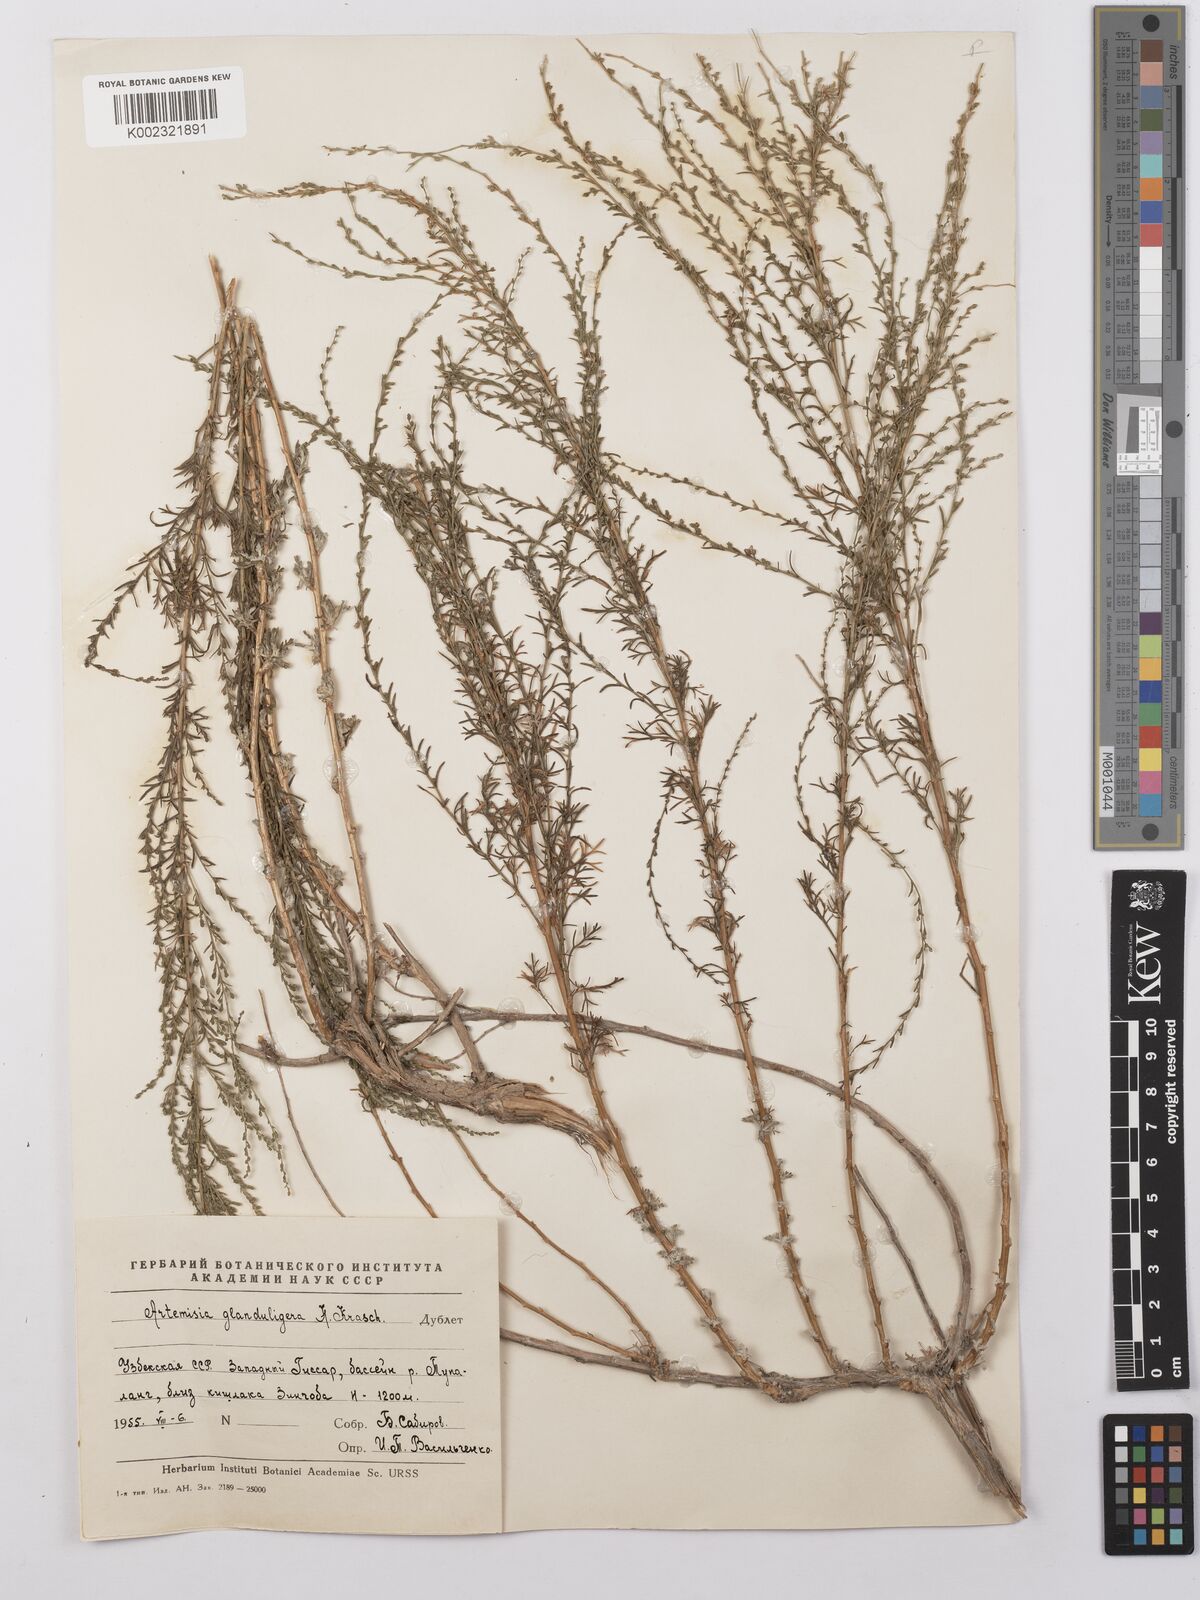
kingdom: Plantae
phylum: Tracheophyta
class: Magnoliopsida
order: Asterales
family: Asteraceae
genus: Artemisia
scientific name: Artemisia glanduligera
